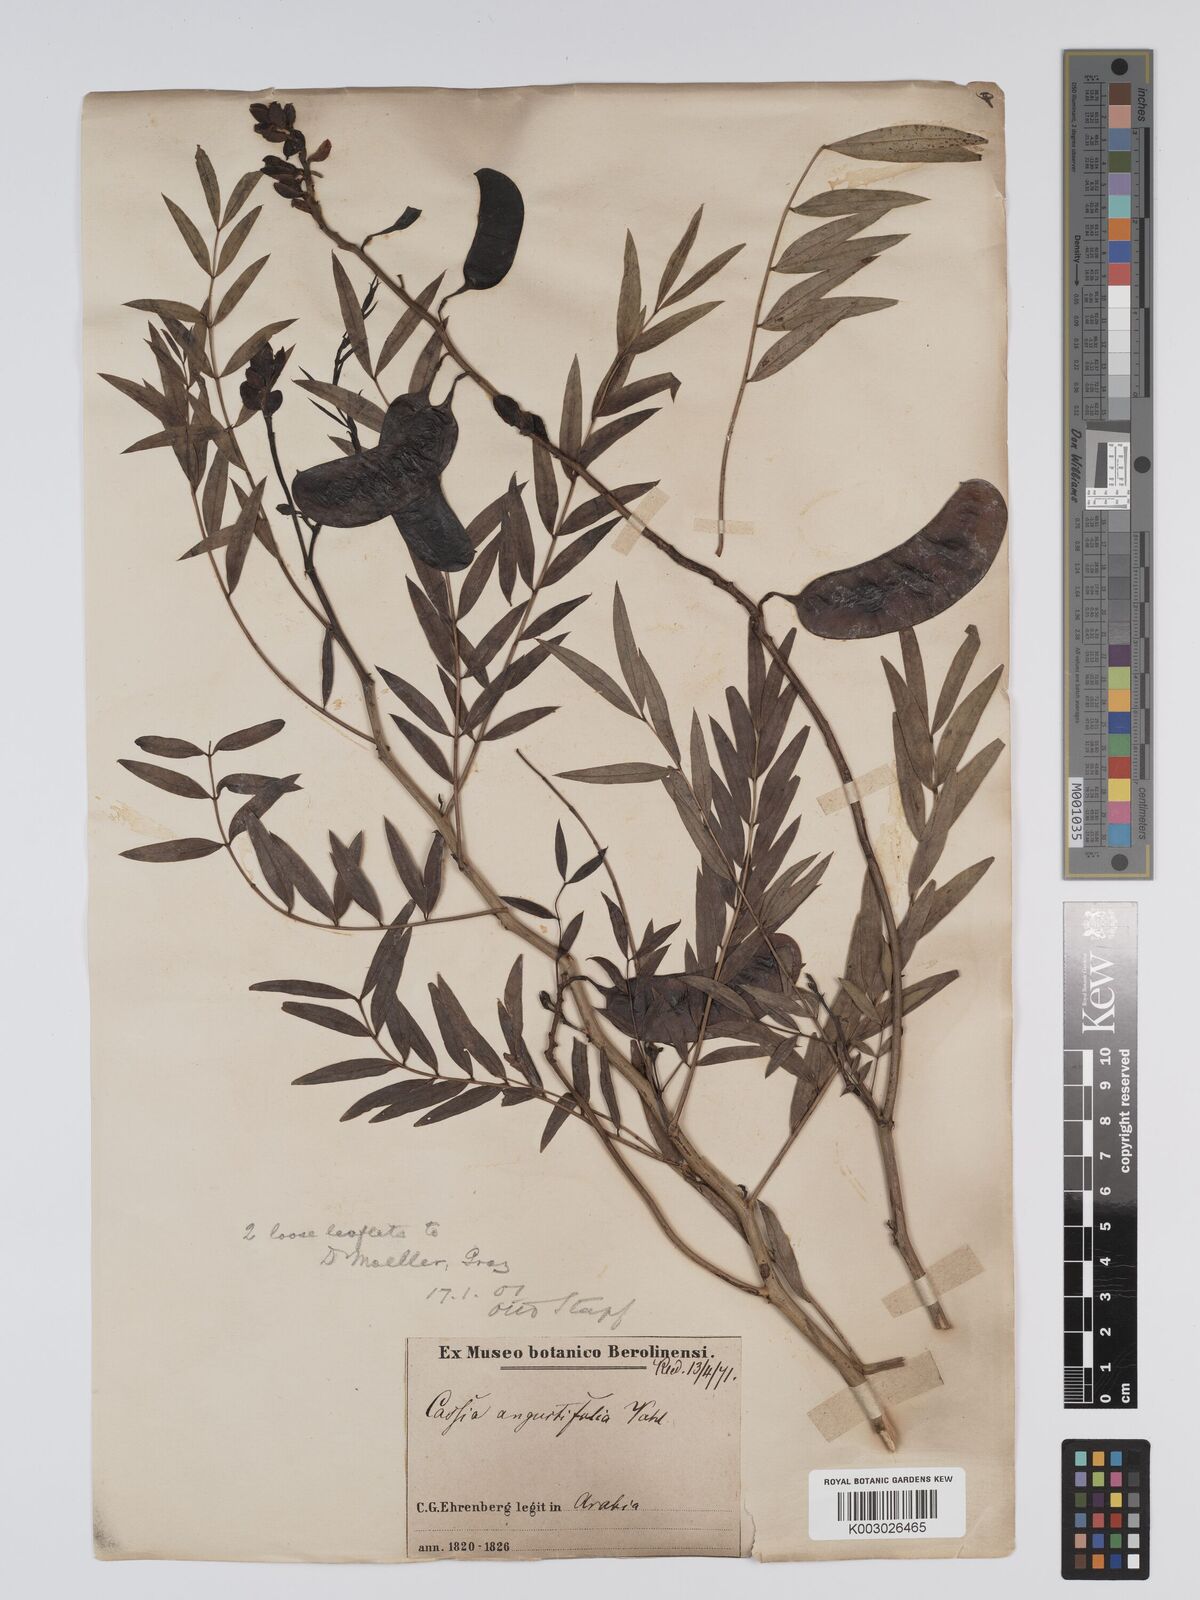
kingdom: Plantae
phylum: Tracheophyta
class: Magnoliopsida
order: Fabales
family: Fabaceae
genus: Senna
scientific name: Senna alexandrina
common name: True senna
